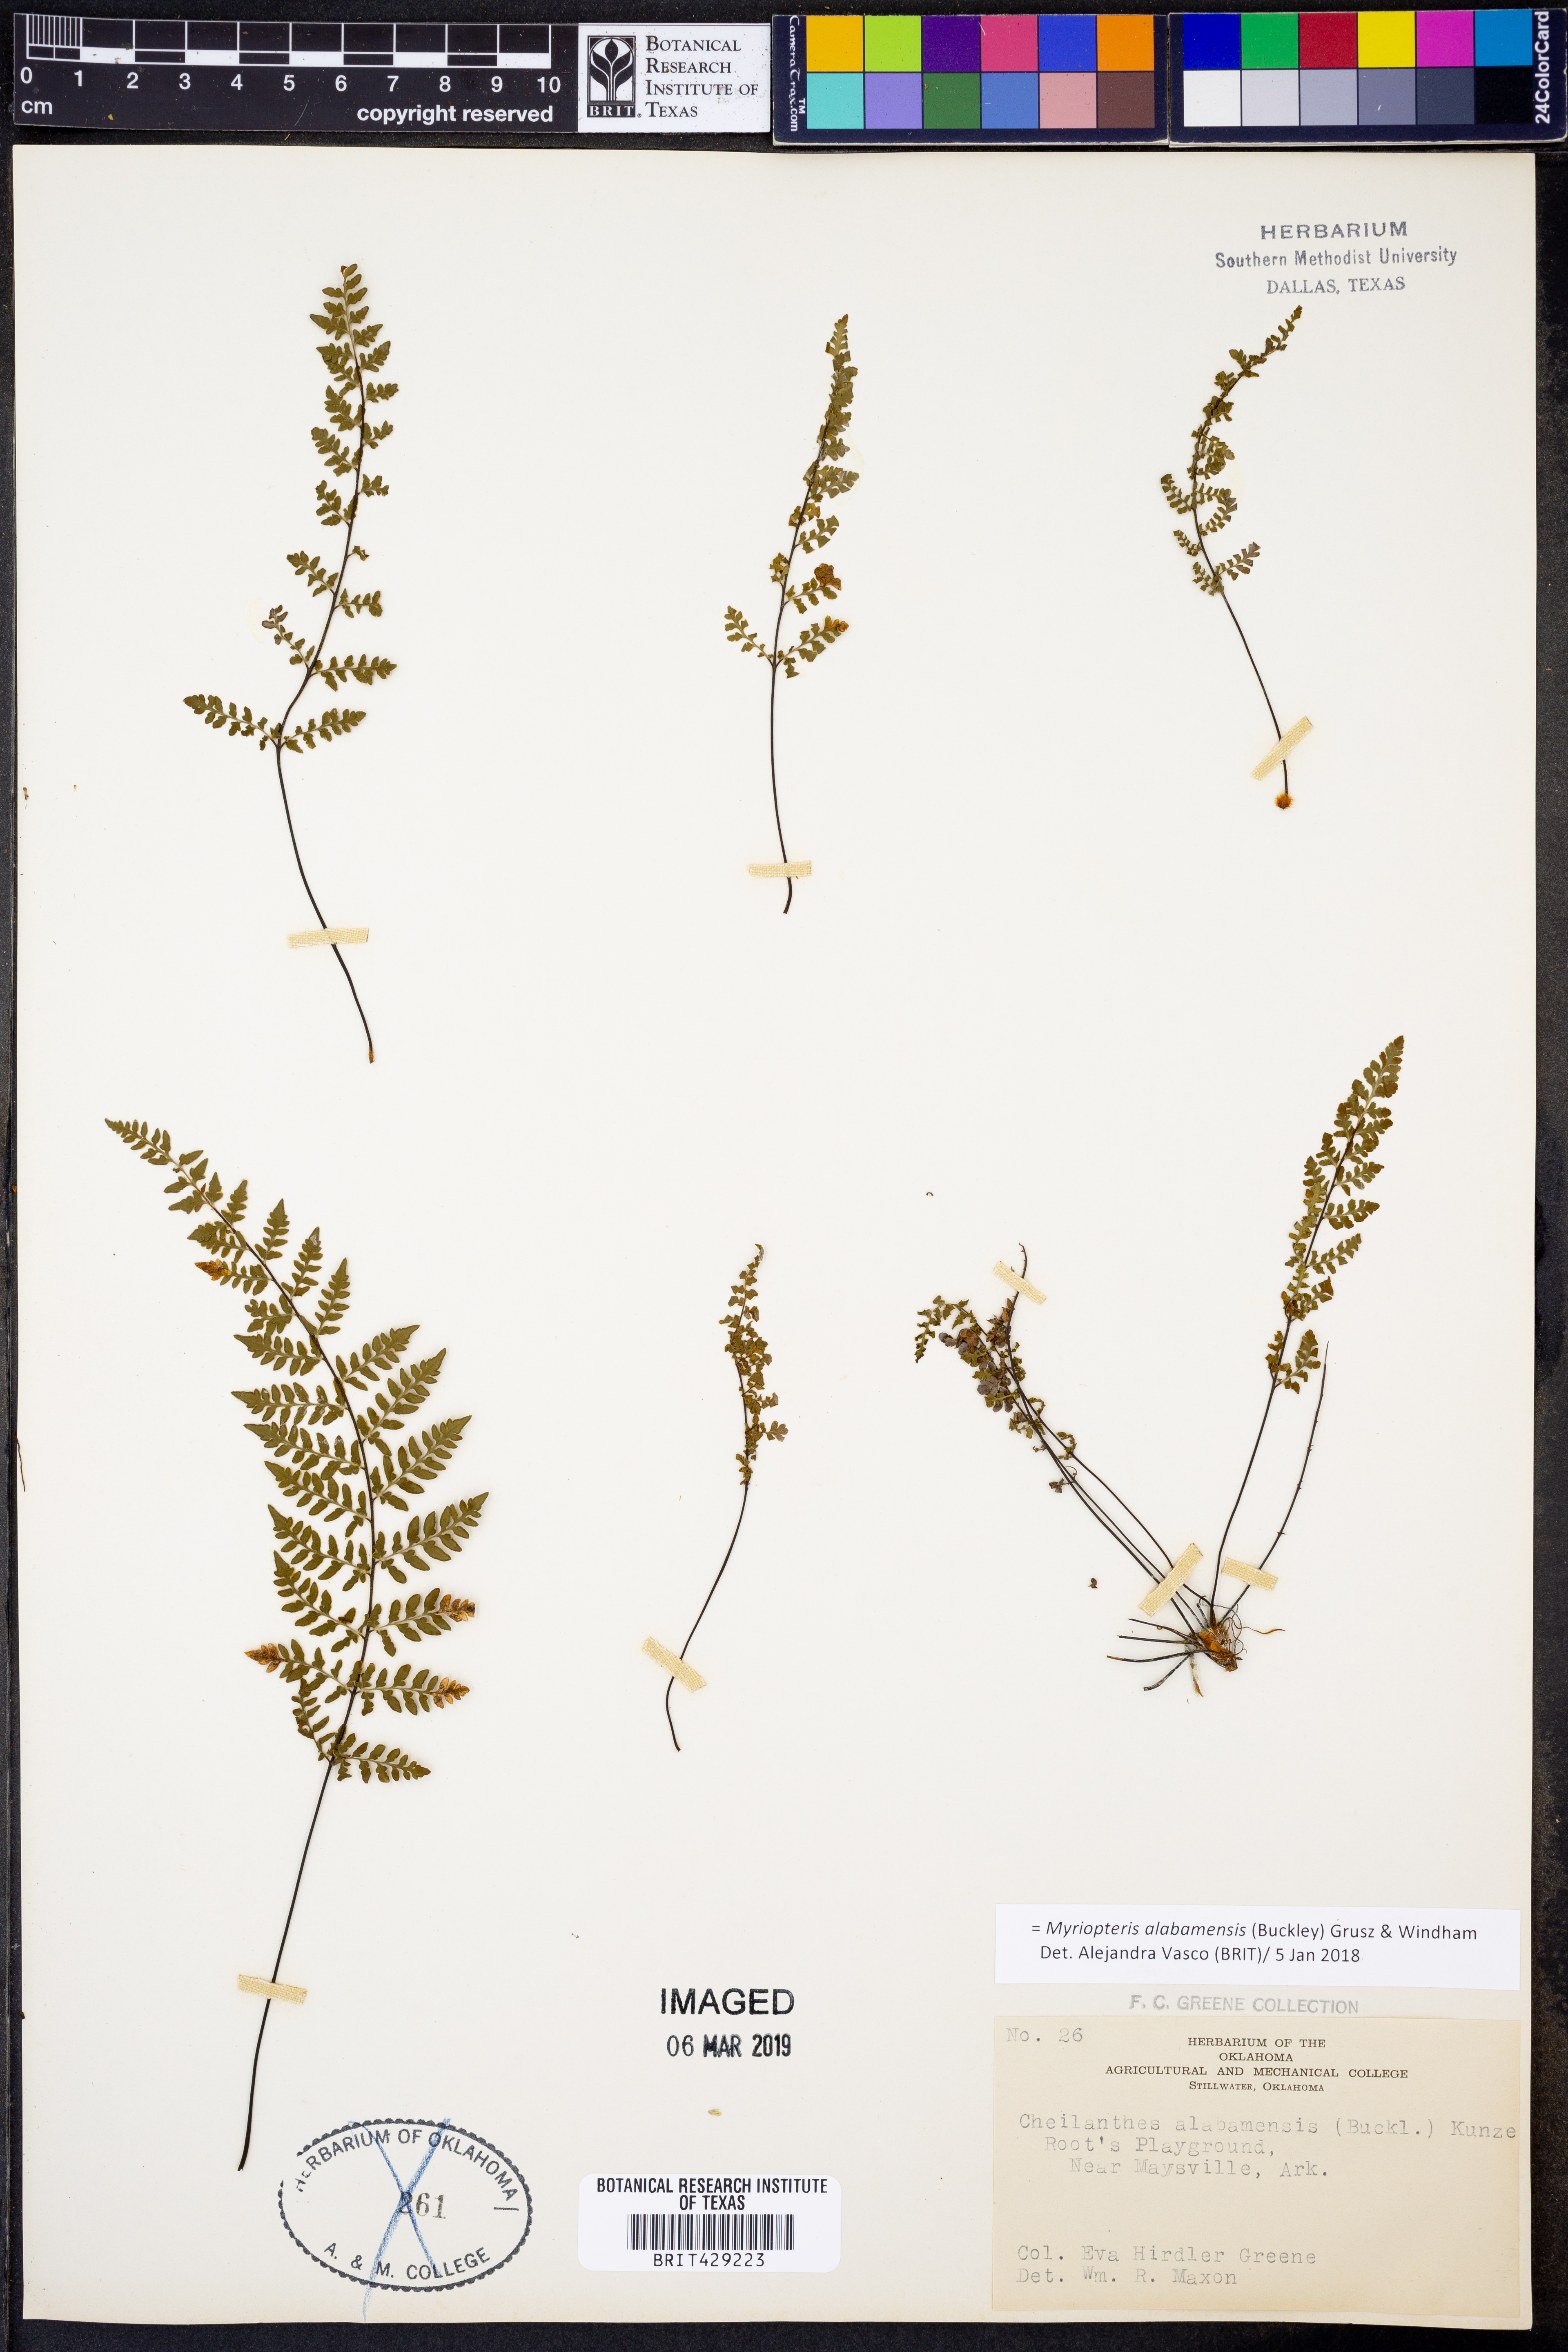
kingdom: Plantae
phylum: Tracheophyta
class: Polypodiopsida
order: Polypodiales
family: Pteridaceae
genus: Myriopteris
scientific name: Myriopteris alabamensis
